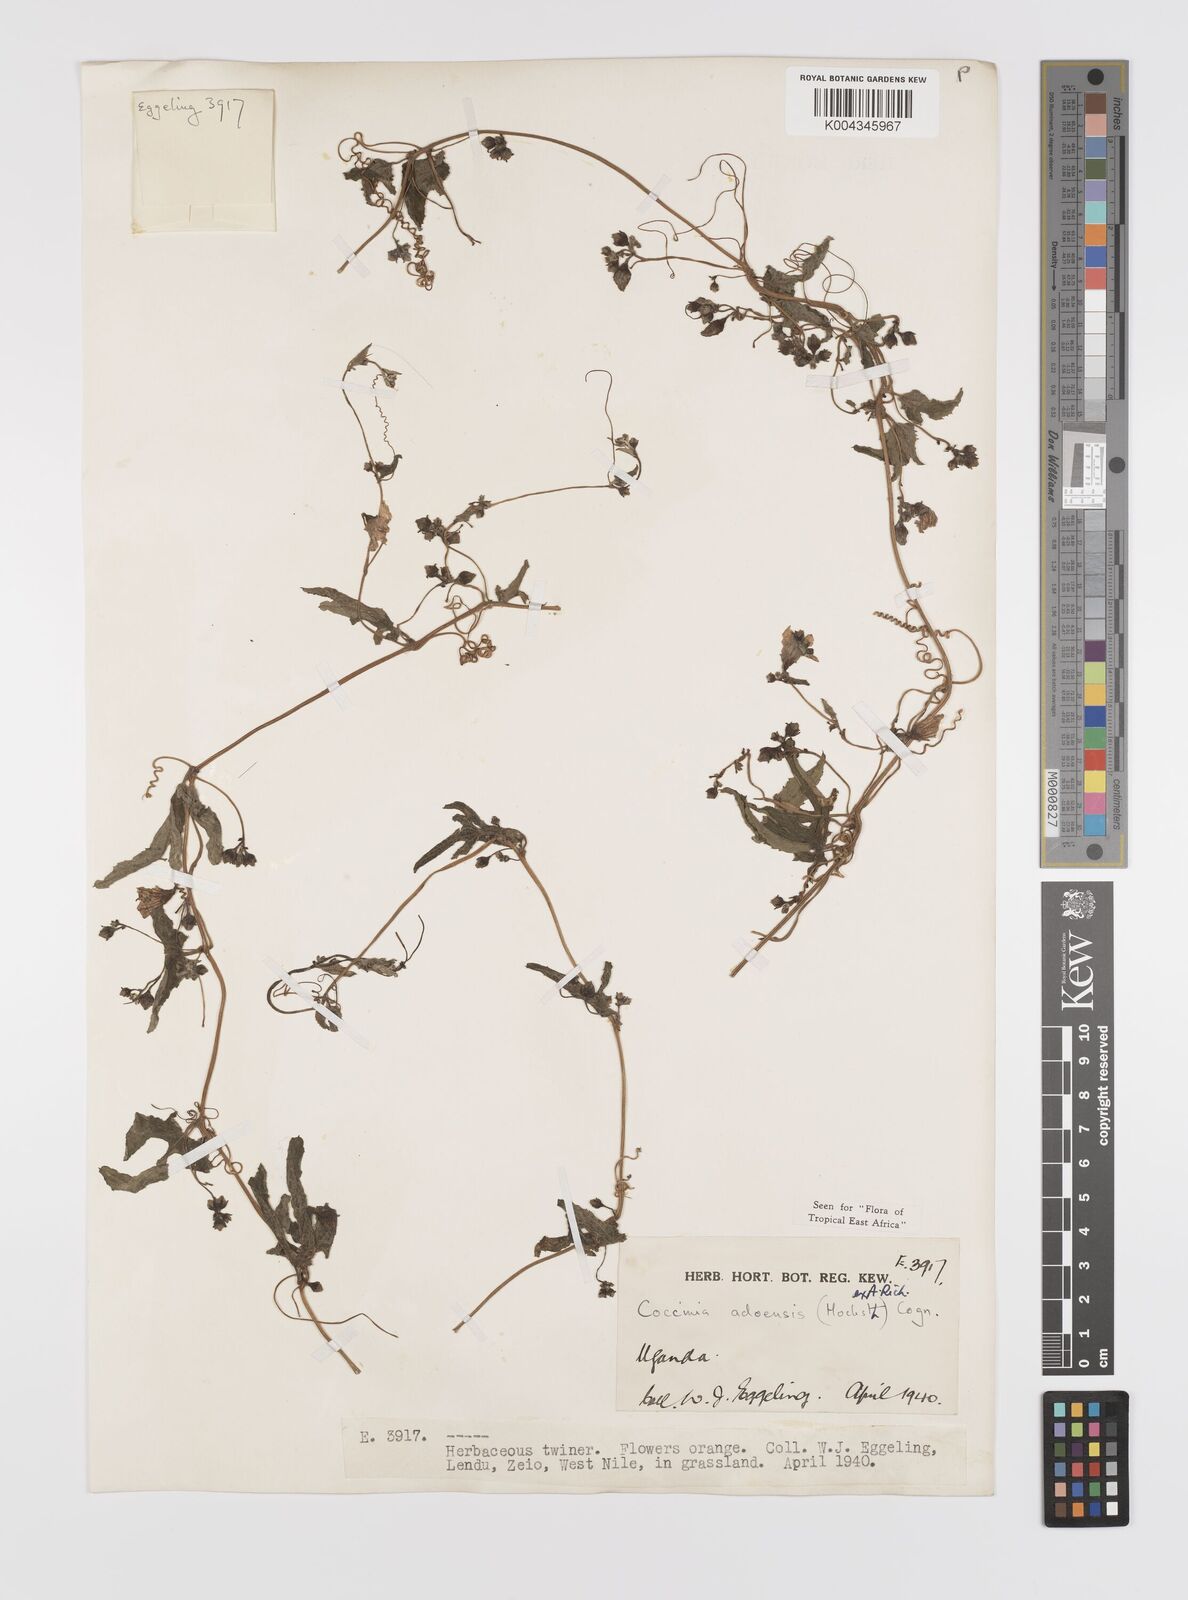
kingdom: Plantae
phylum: Tracheophyta
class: Magnoliopsida
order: Cucurbitales
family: Cucurbitaceae
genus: Coccinia
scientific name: Coccinia adoensis
